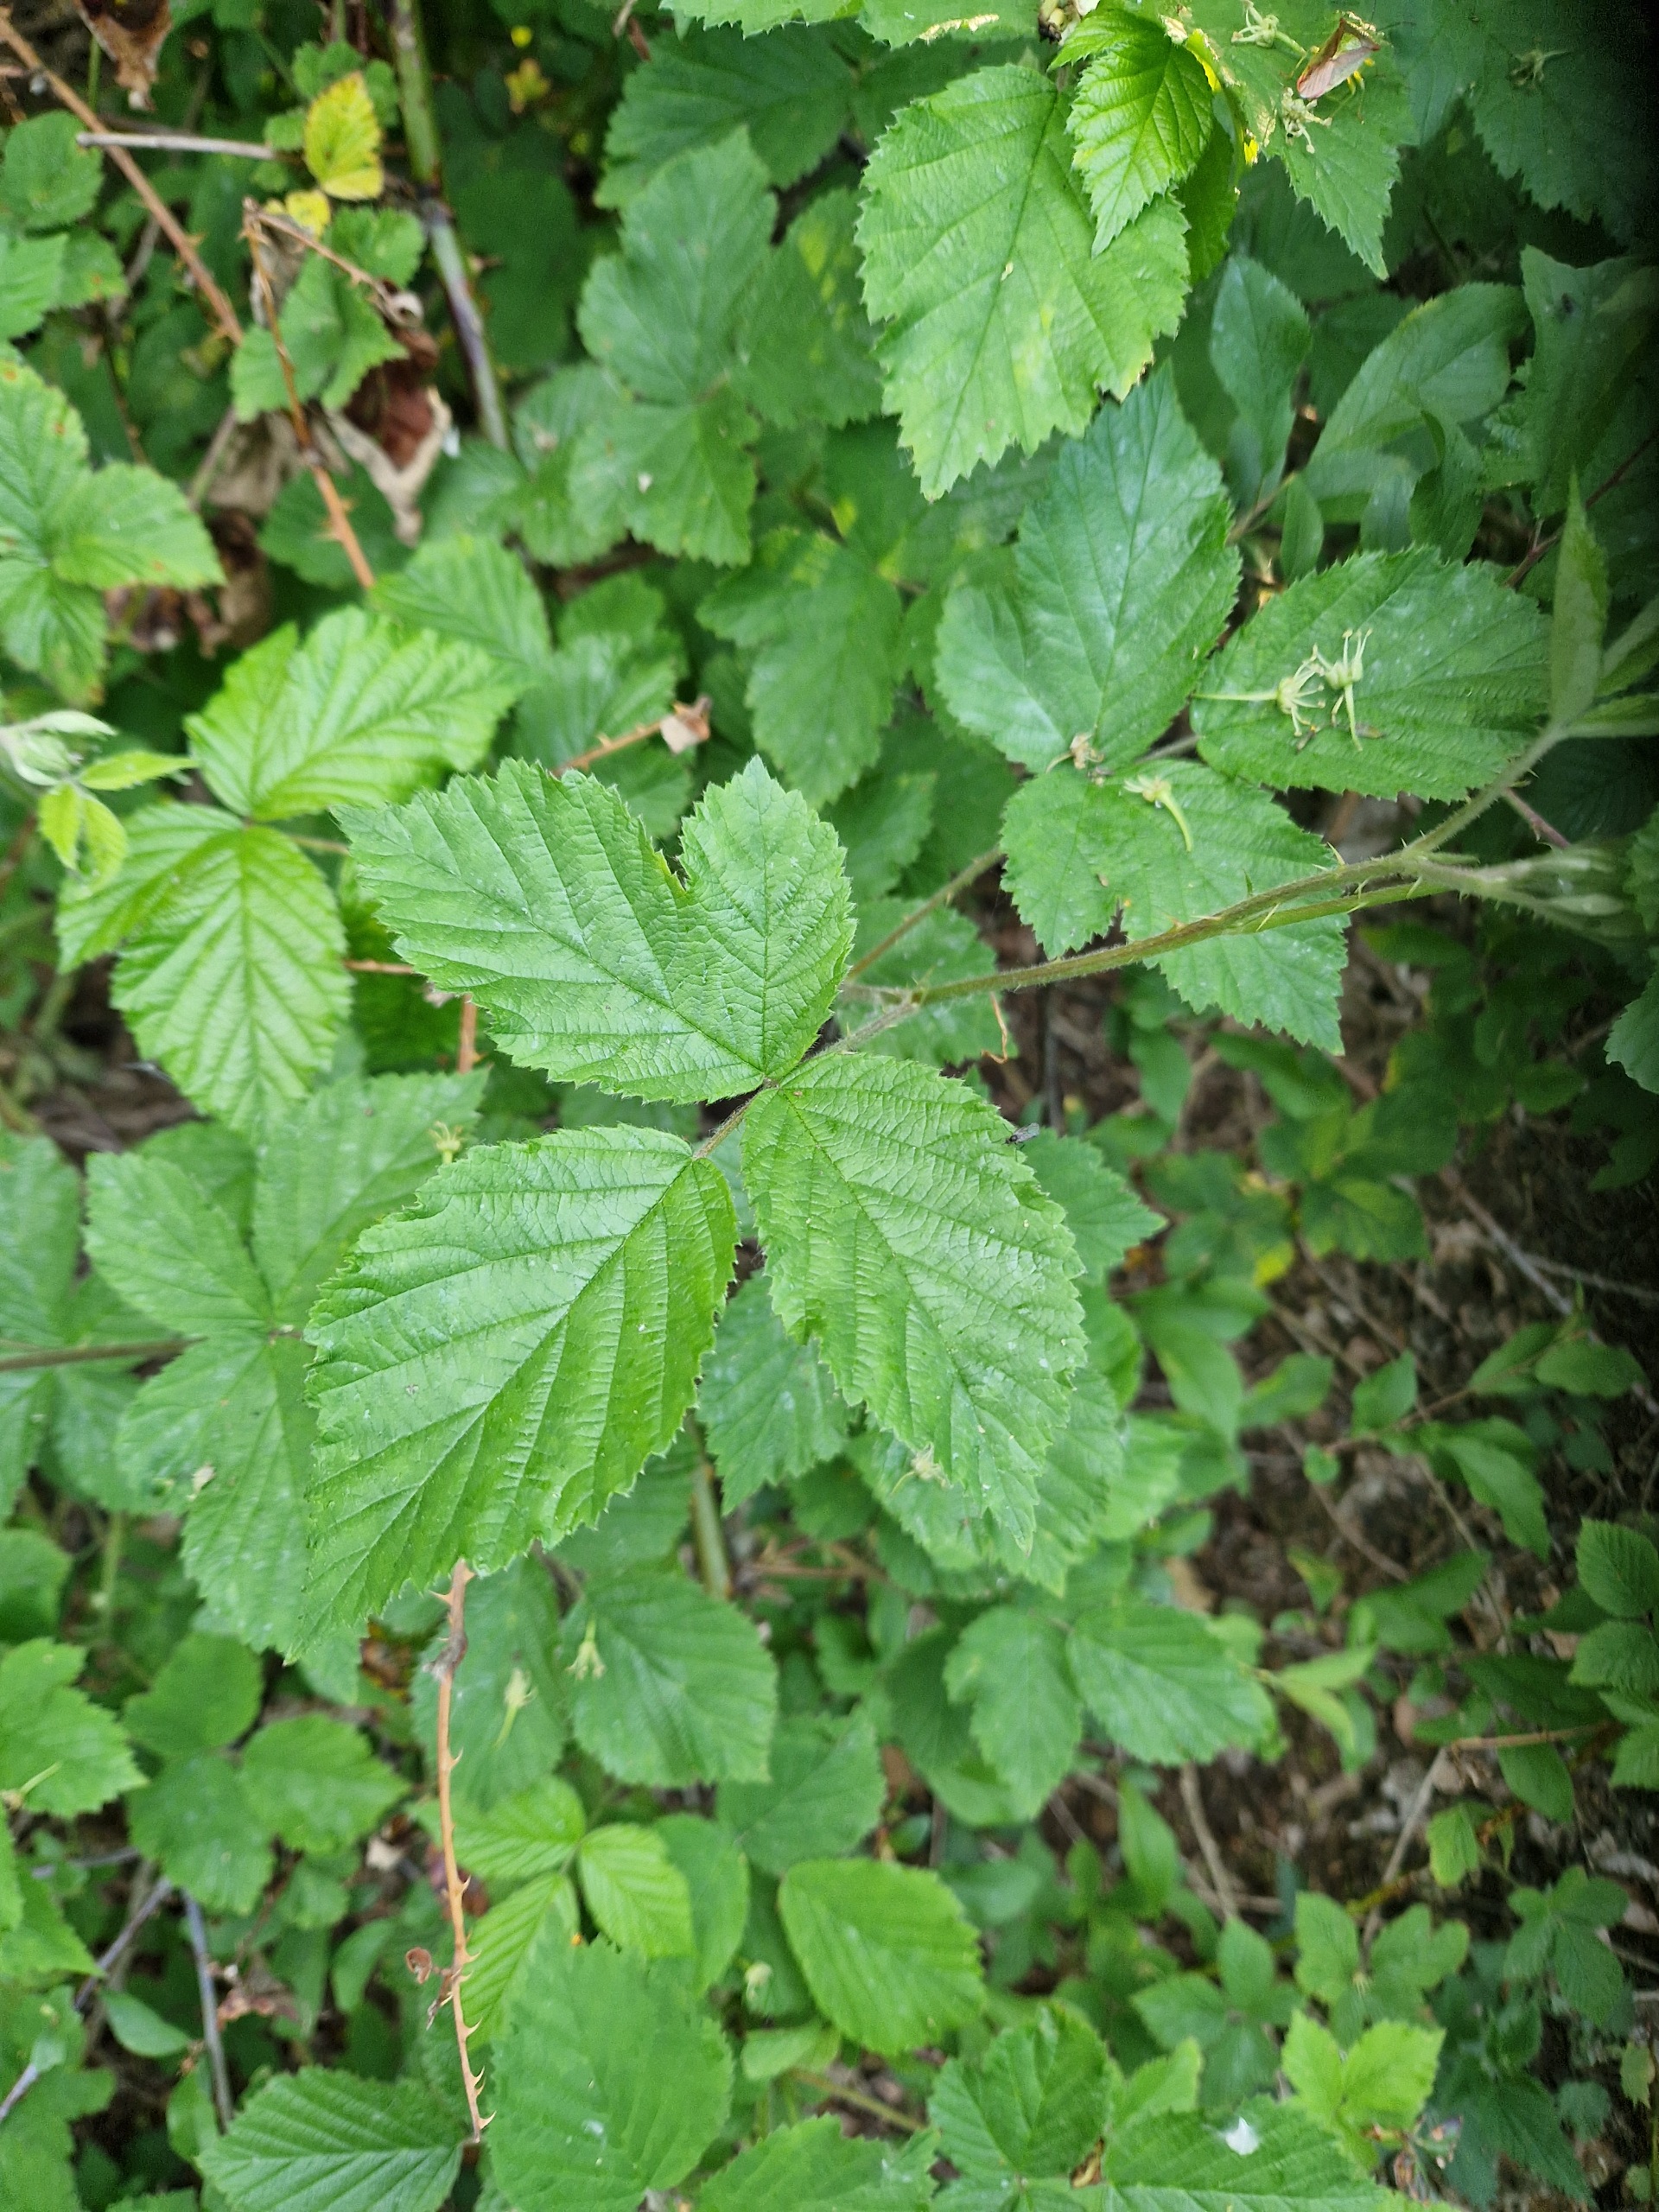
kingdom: Plantae
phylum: Tracheophyta
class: Magnoliopsida
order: Rosales
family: Rosaceae
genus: Rubus
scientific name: Rubus
